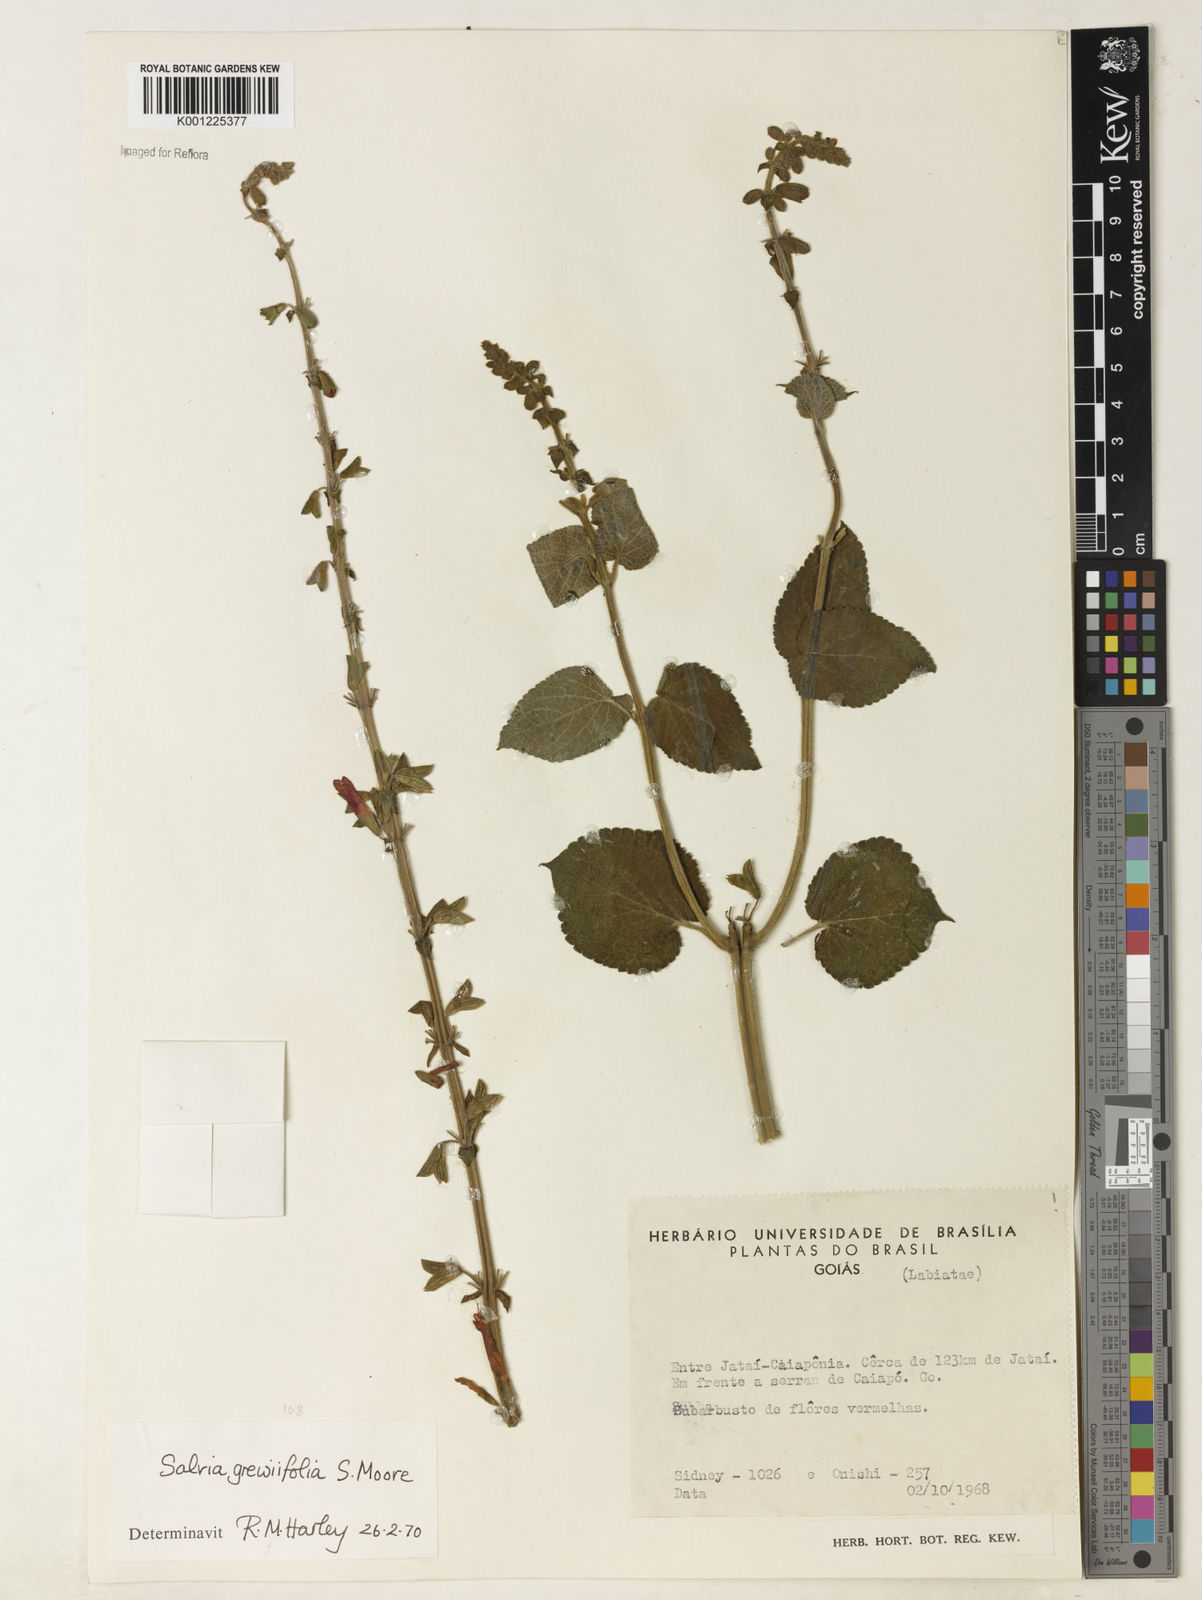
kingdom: Plantae
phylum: Tracheophyta
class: Magnoliopsida
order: Lamiales
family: Lamiaceae
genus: Salvia
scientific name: Salvia grewiifolia
